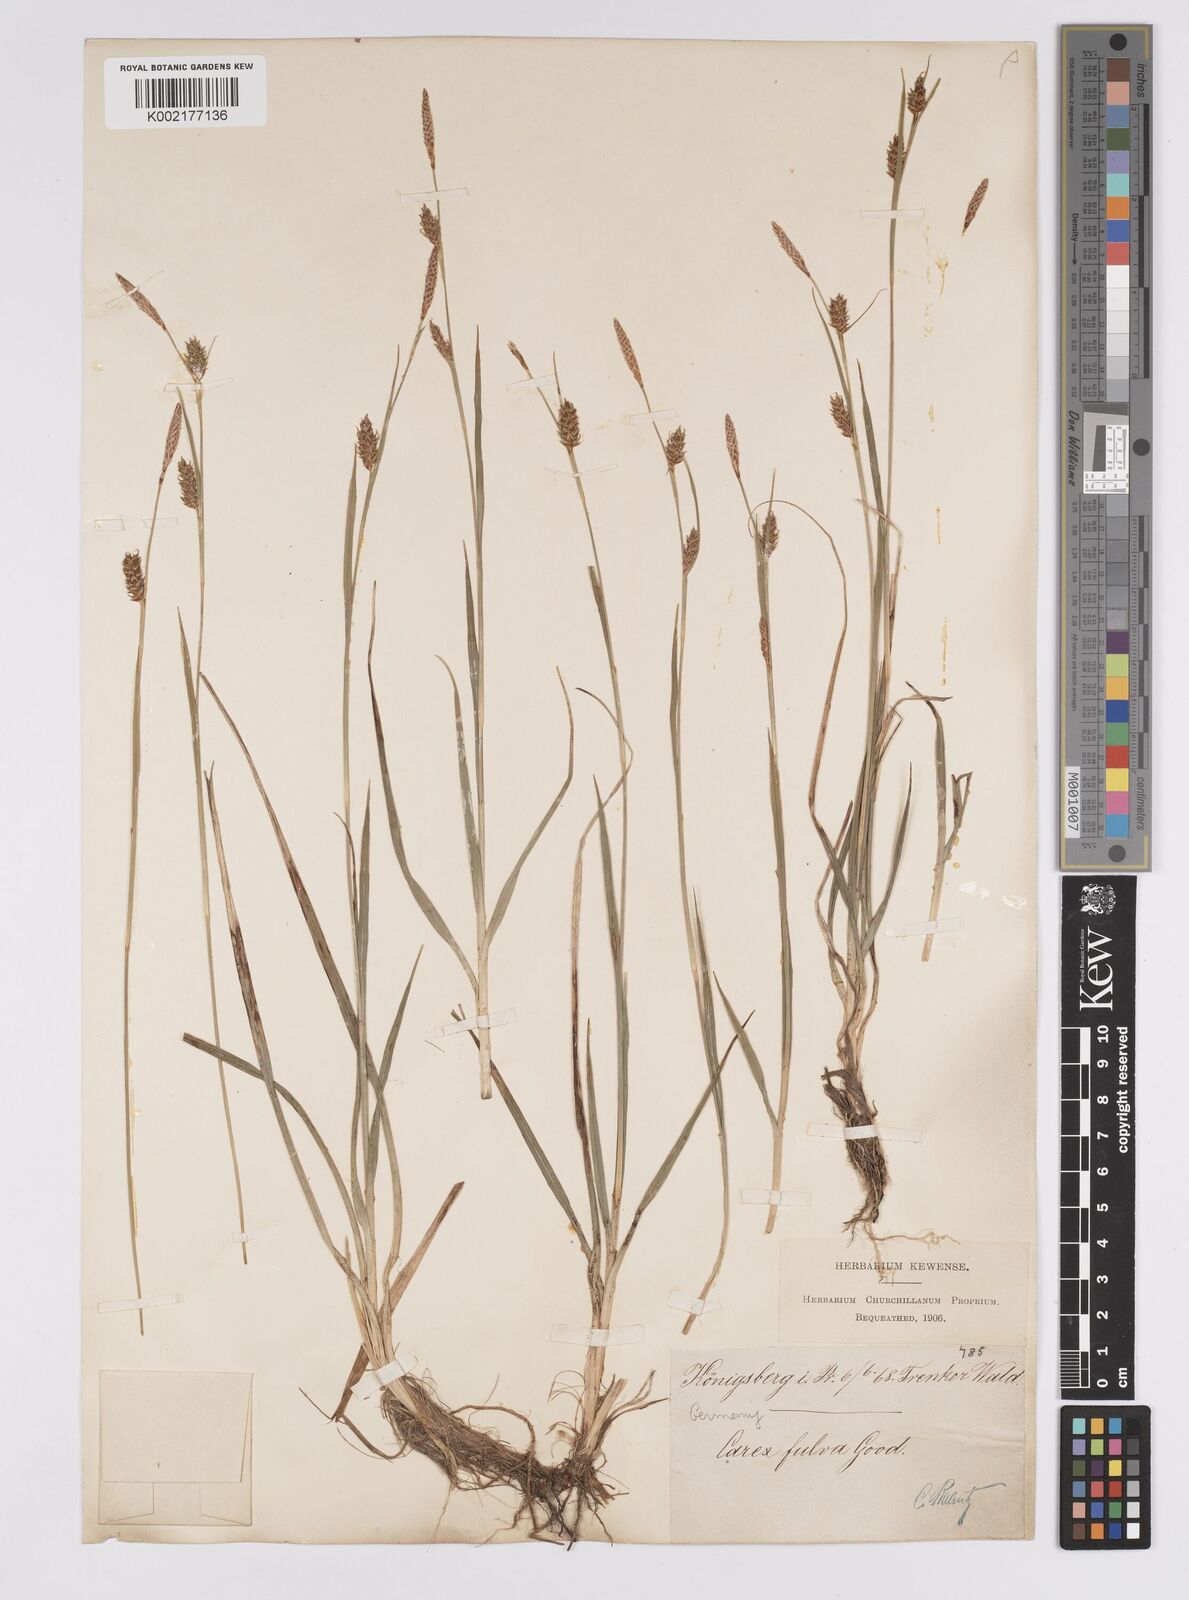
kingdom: Plantae
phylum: Tracheophyta
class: Liliopsida
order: Poales
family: Cyperaceae
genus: Carex
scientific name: Carex hostiana
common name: Tawny sedge
